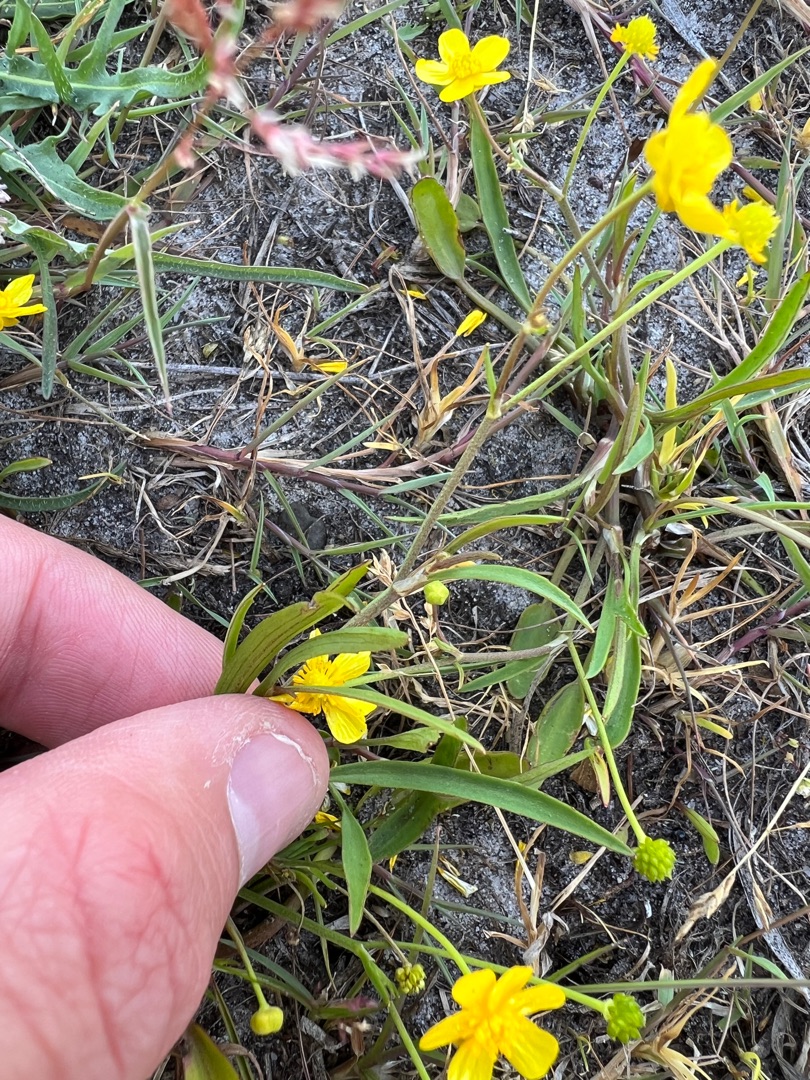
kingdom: Plantae
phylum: Tracheophyta
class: Magnoliopsida
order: Ranunculales
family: Ranunculaceae
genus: Ranunculus
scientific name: Ranunculus flammula
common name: Kær-ranunkel
